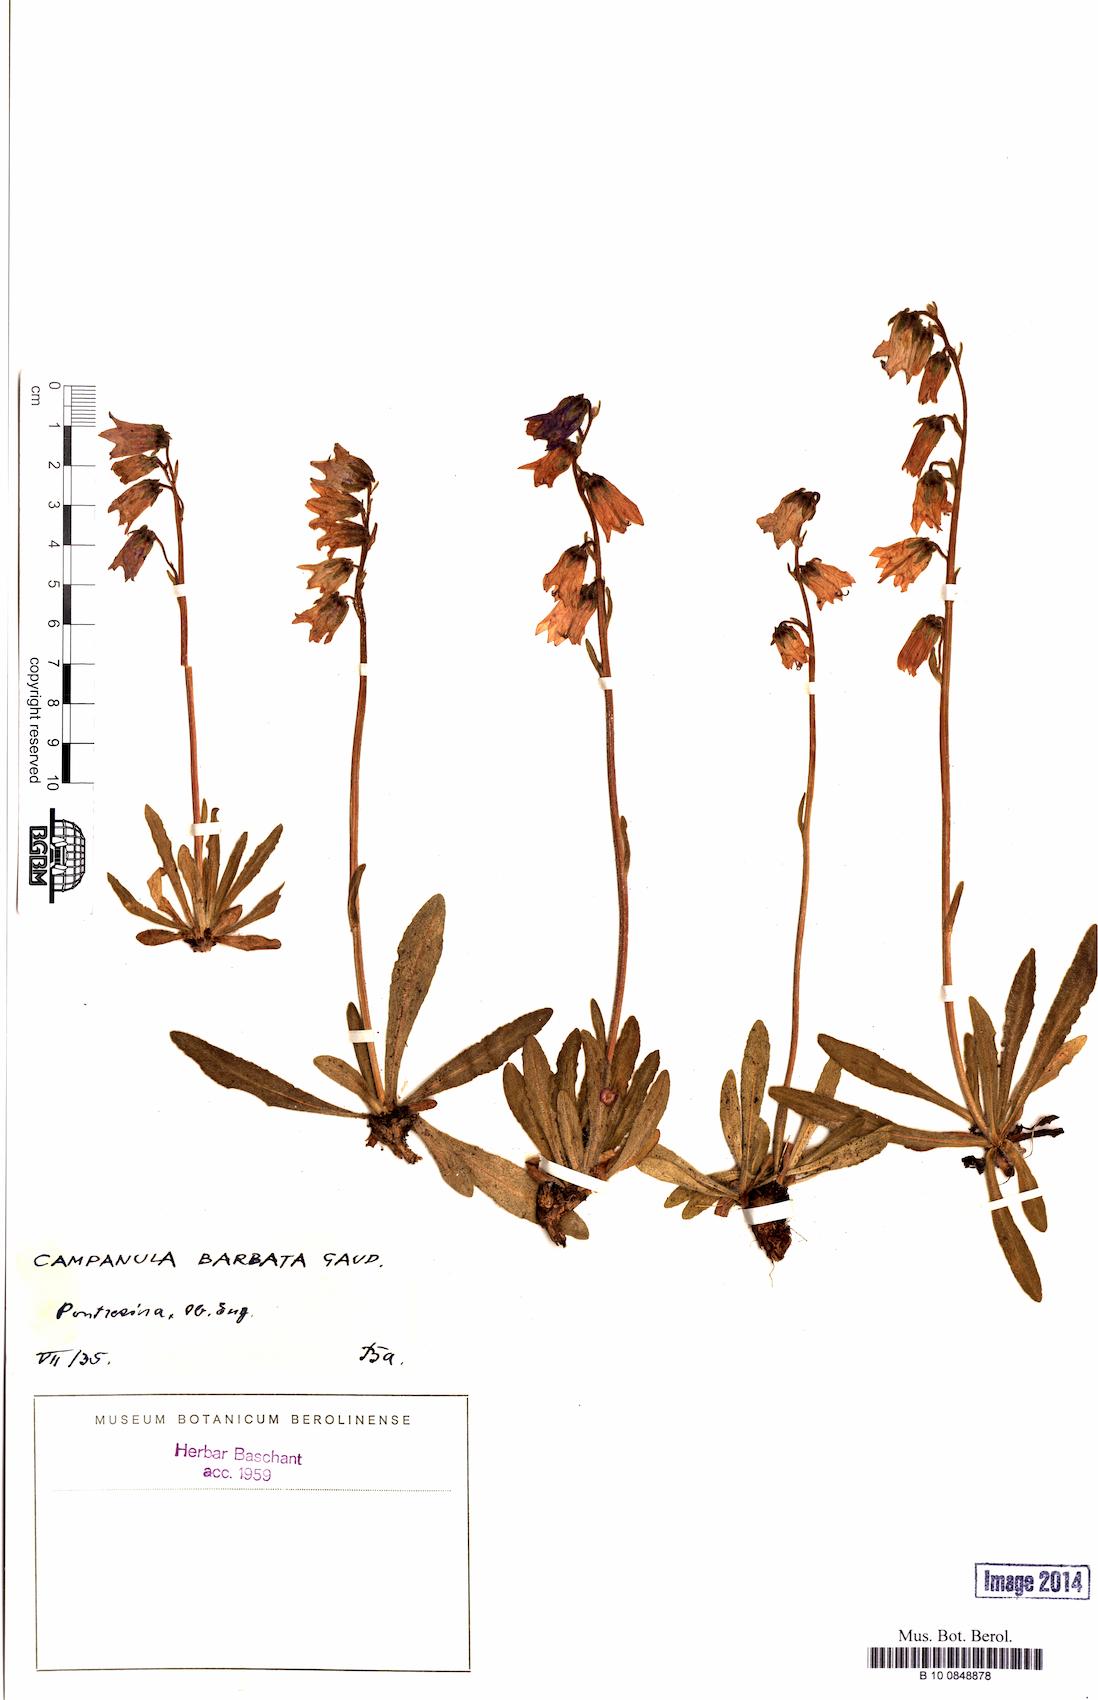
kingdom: Plantae
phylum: Tracheophyta
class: Magnoliopsida
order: Asterales
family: Campanulaceae
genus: Campanula
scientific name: Campanula barbata
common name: Bearded bellflower
